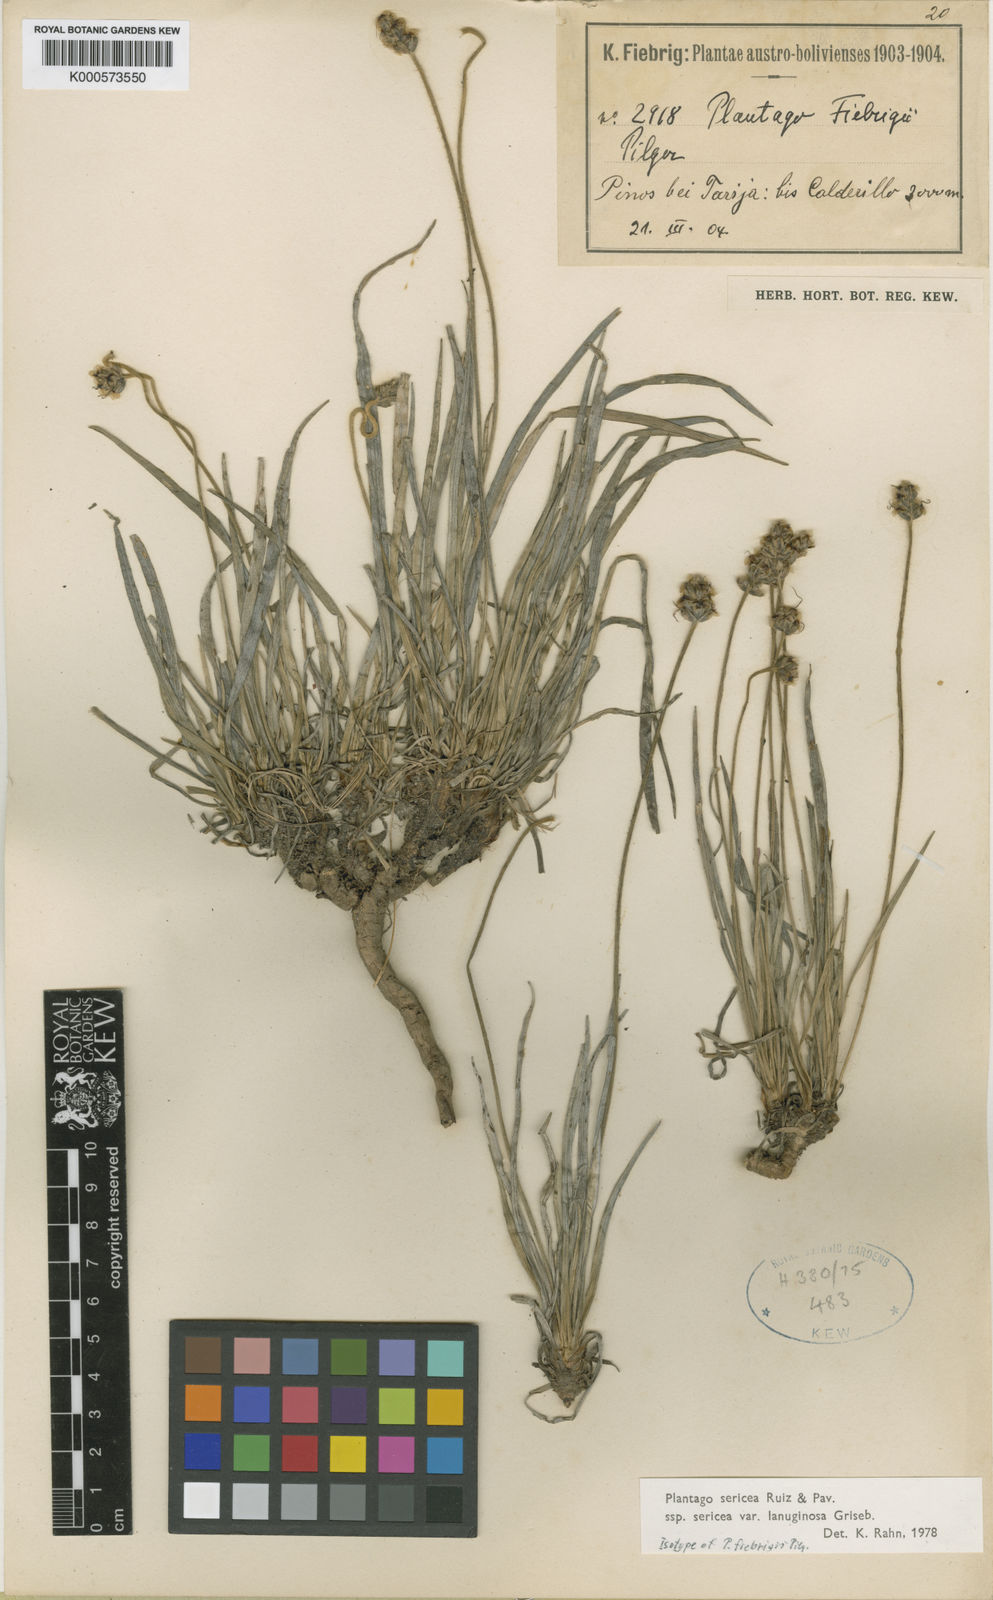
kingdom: Plantae
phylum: Tracheophyta
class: Magnoliopsida
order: Lamiales
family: Plantaginaceae
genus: Plantago
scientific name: Plantago sericea
